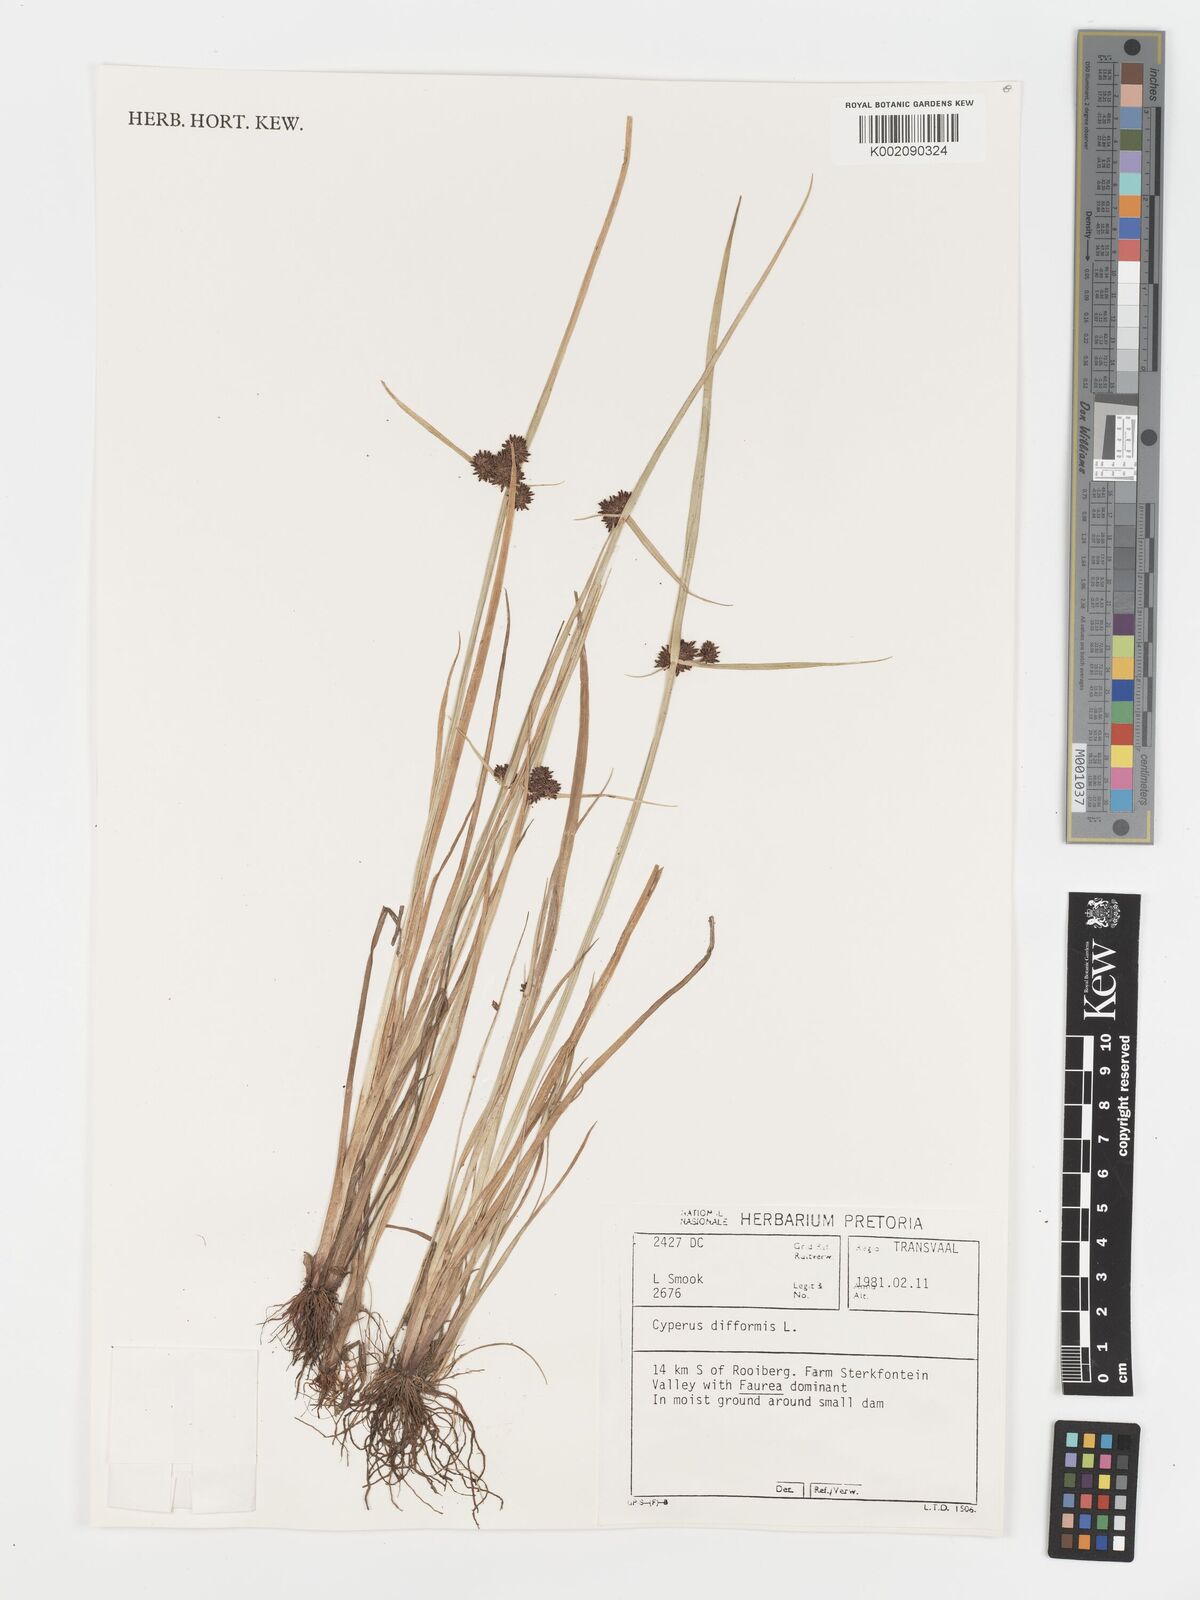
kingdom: Plantae
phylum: Tracheophyta
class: Liliopsida
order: Poales
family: Cyperaceae
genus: Cyperus
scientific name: Cyperus difformis
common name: Variable flatsedge
